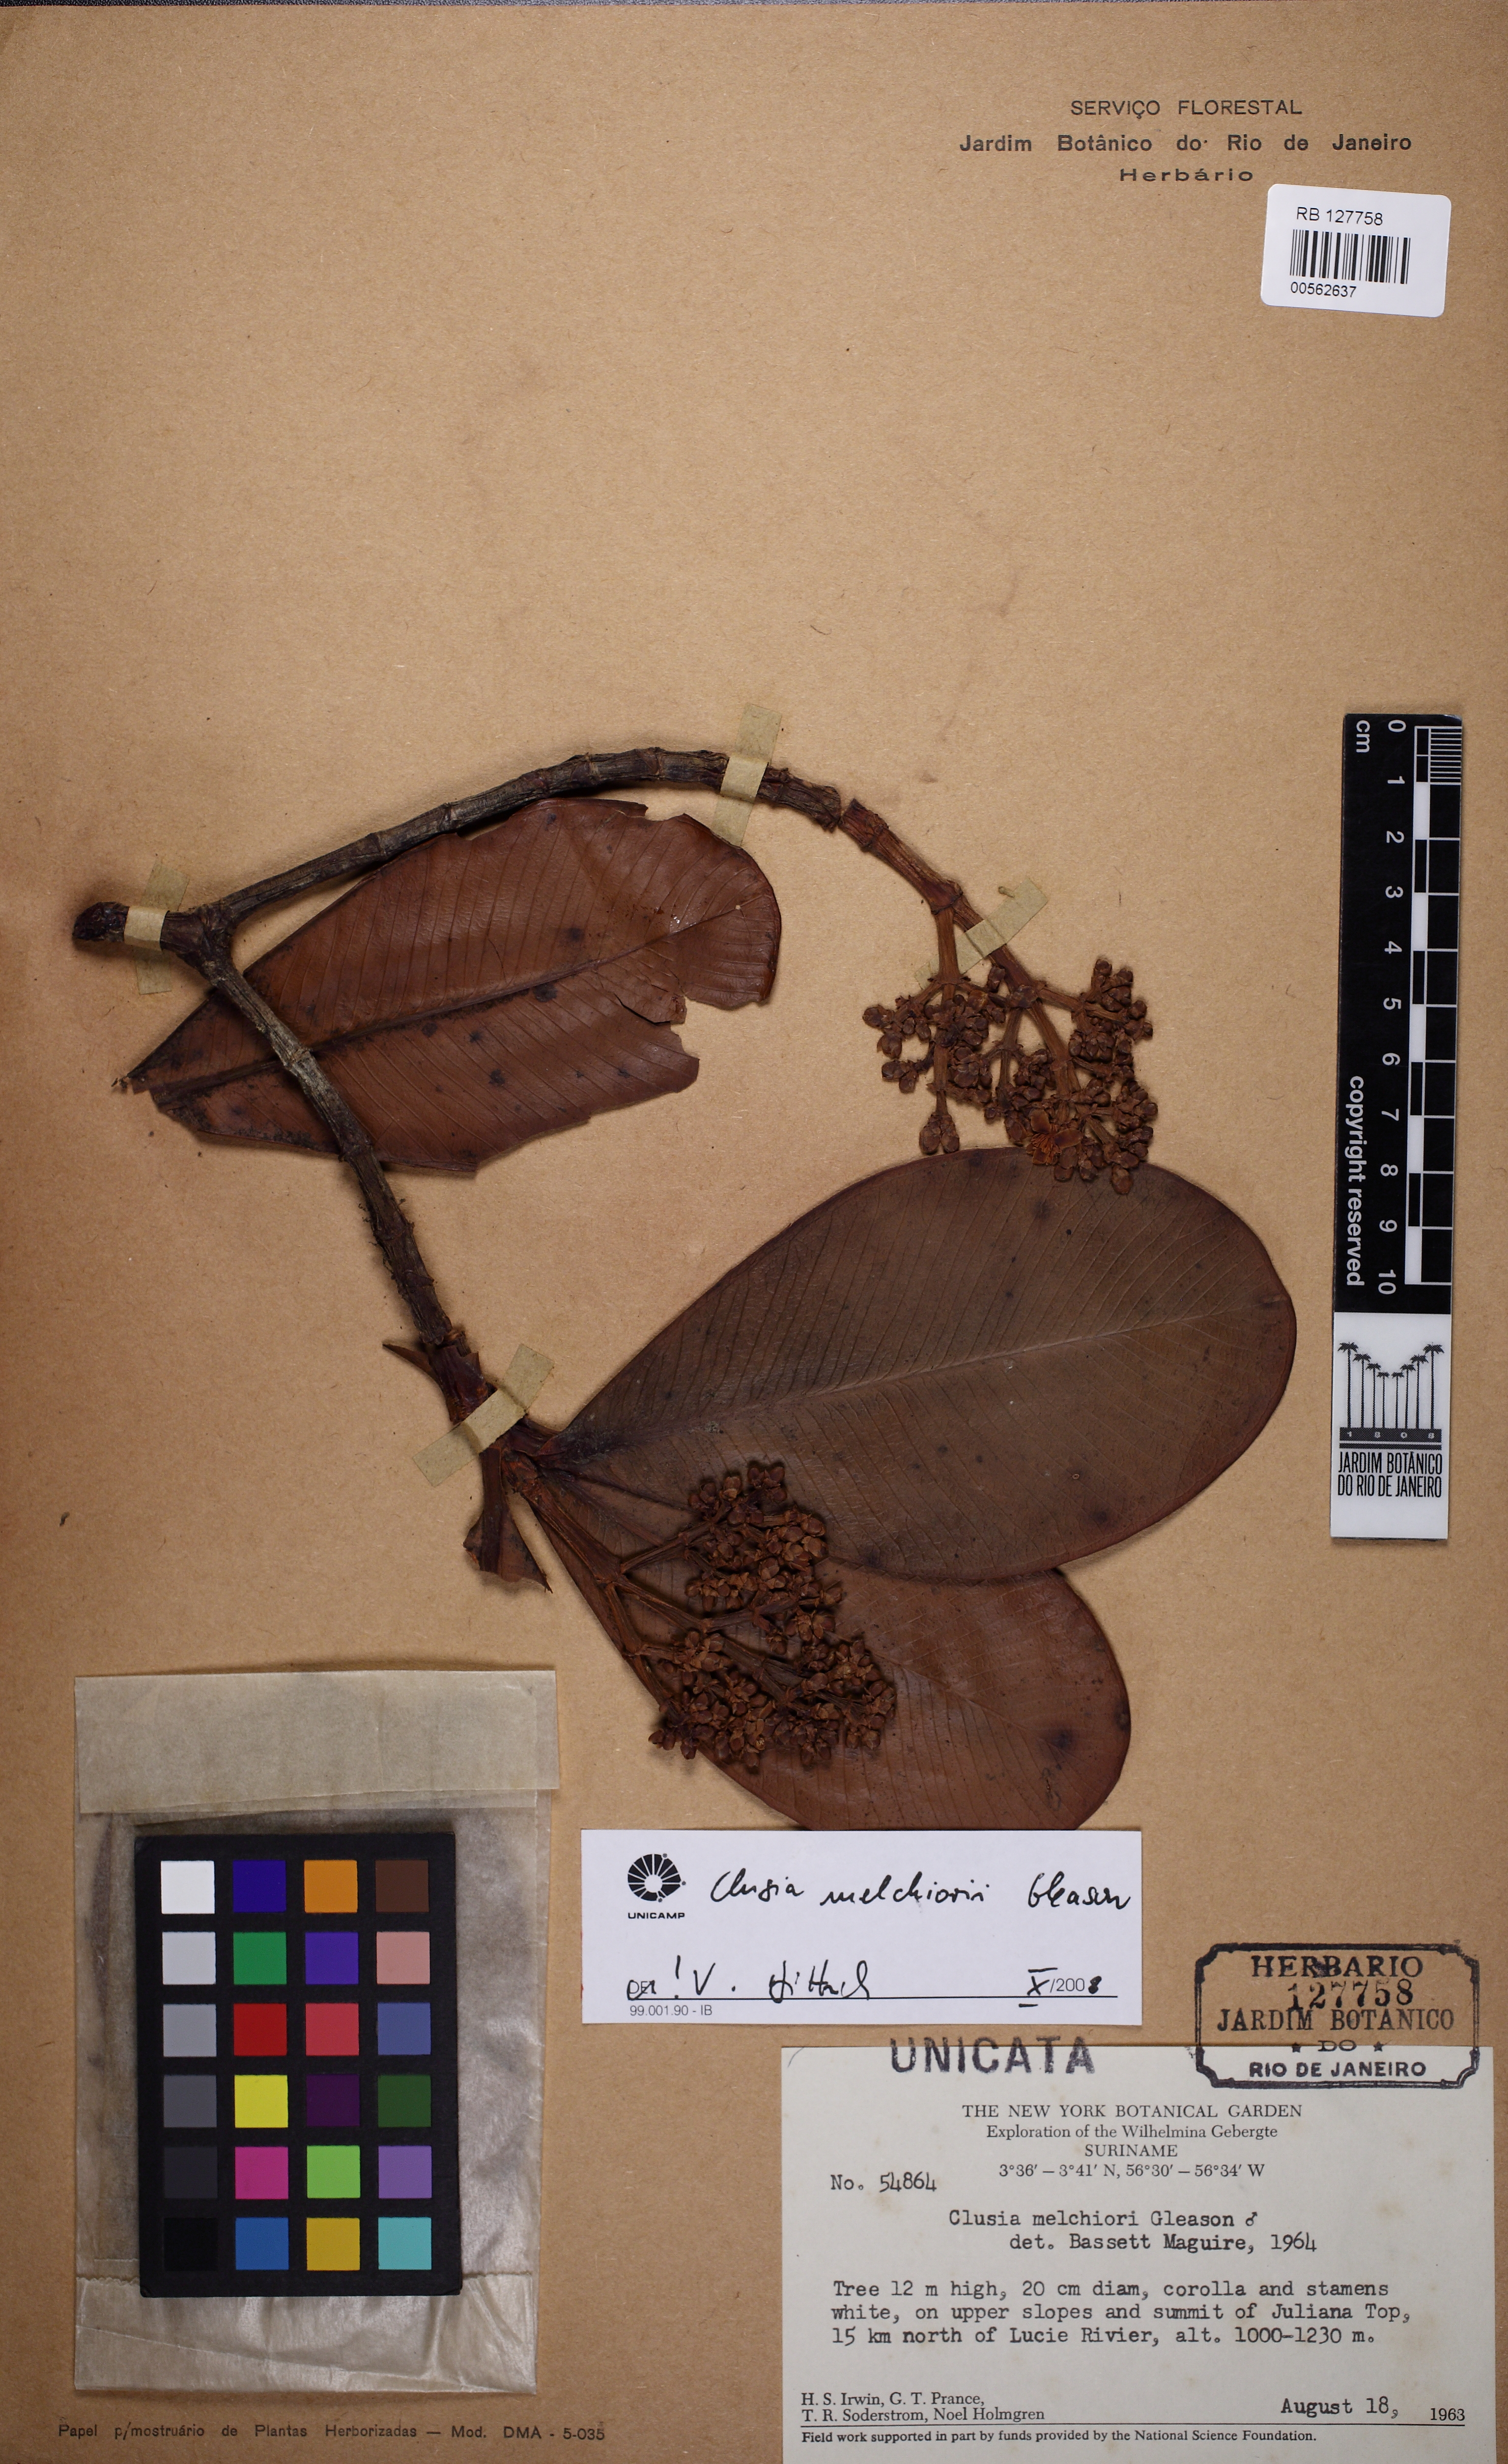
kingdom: Plantae
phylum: Tracheophyta
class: Magnoliopsida
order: Malpighiales
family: Clusiaceae
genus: Clusia
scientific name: Clusia melchiorii
